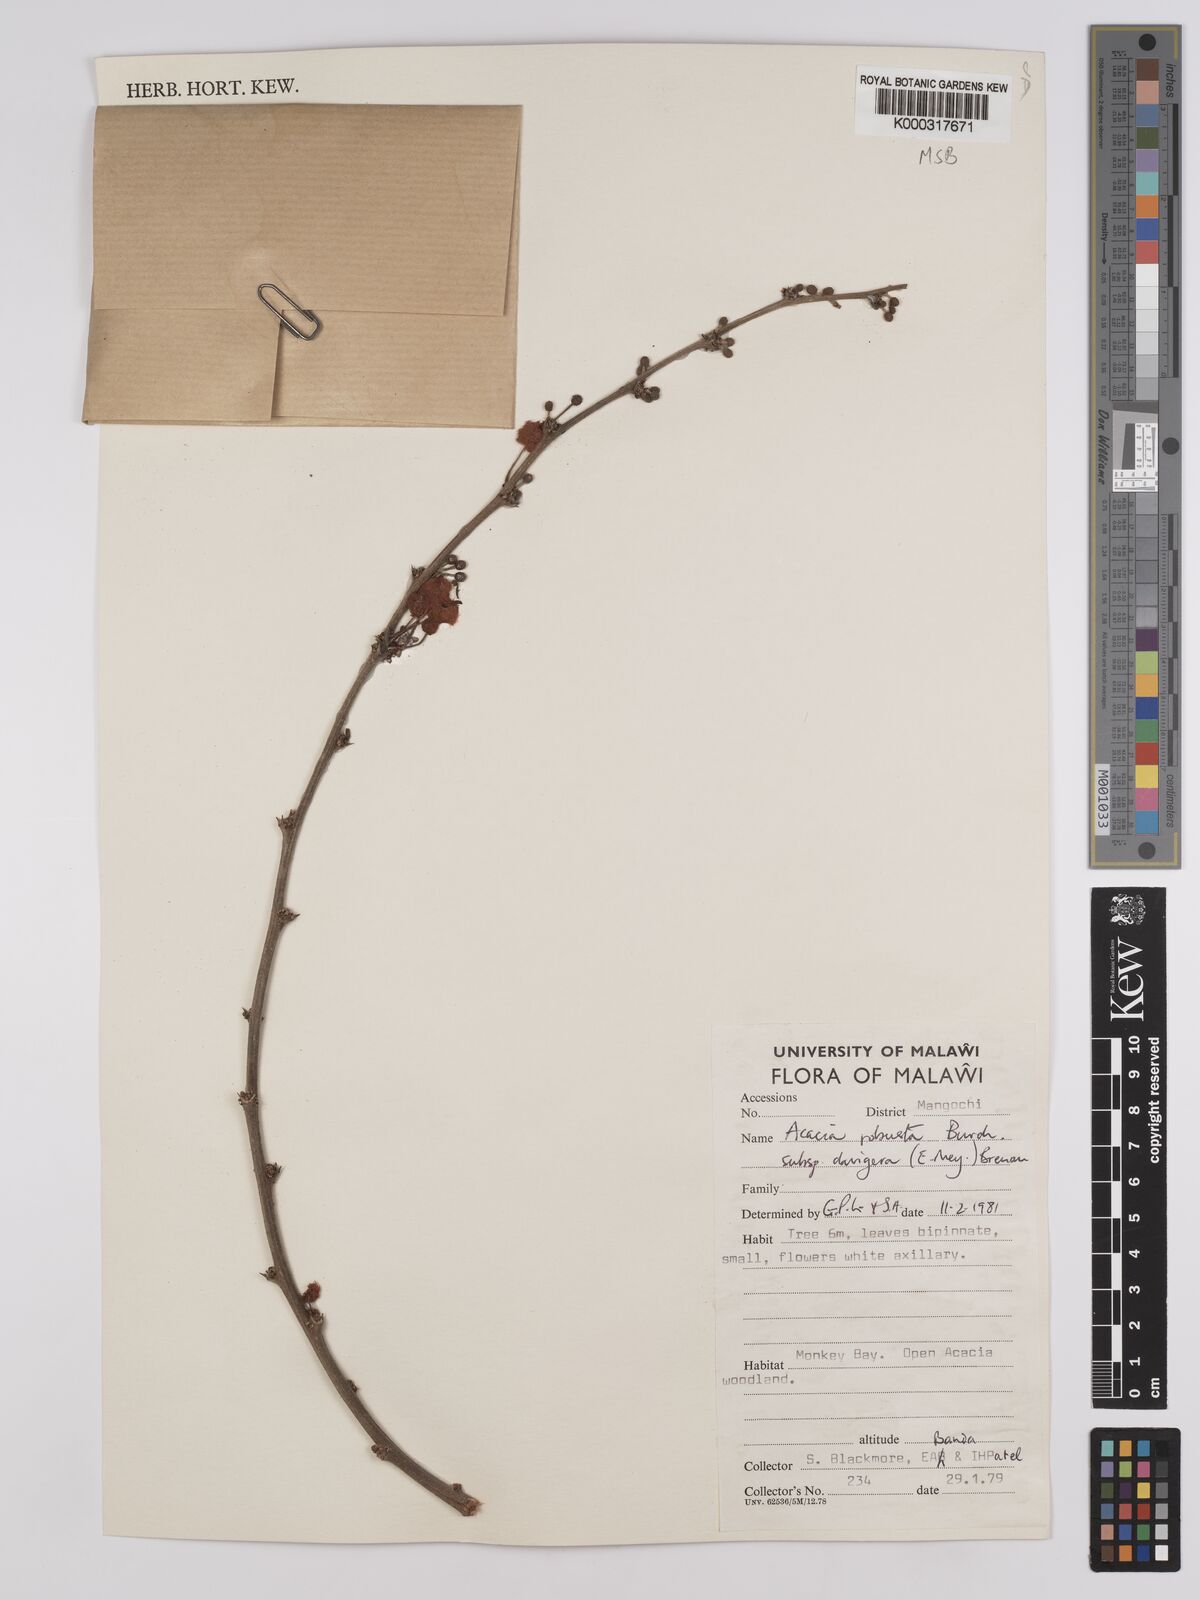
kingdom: Plantae
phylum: Tracheophyta
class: Magnoliopsida
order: Fabales
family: Fabaceae
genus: Vachellia
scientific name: Vachellia robusta
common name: Ankle thorn
